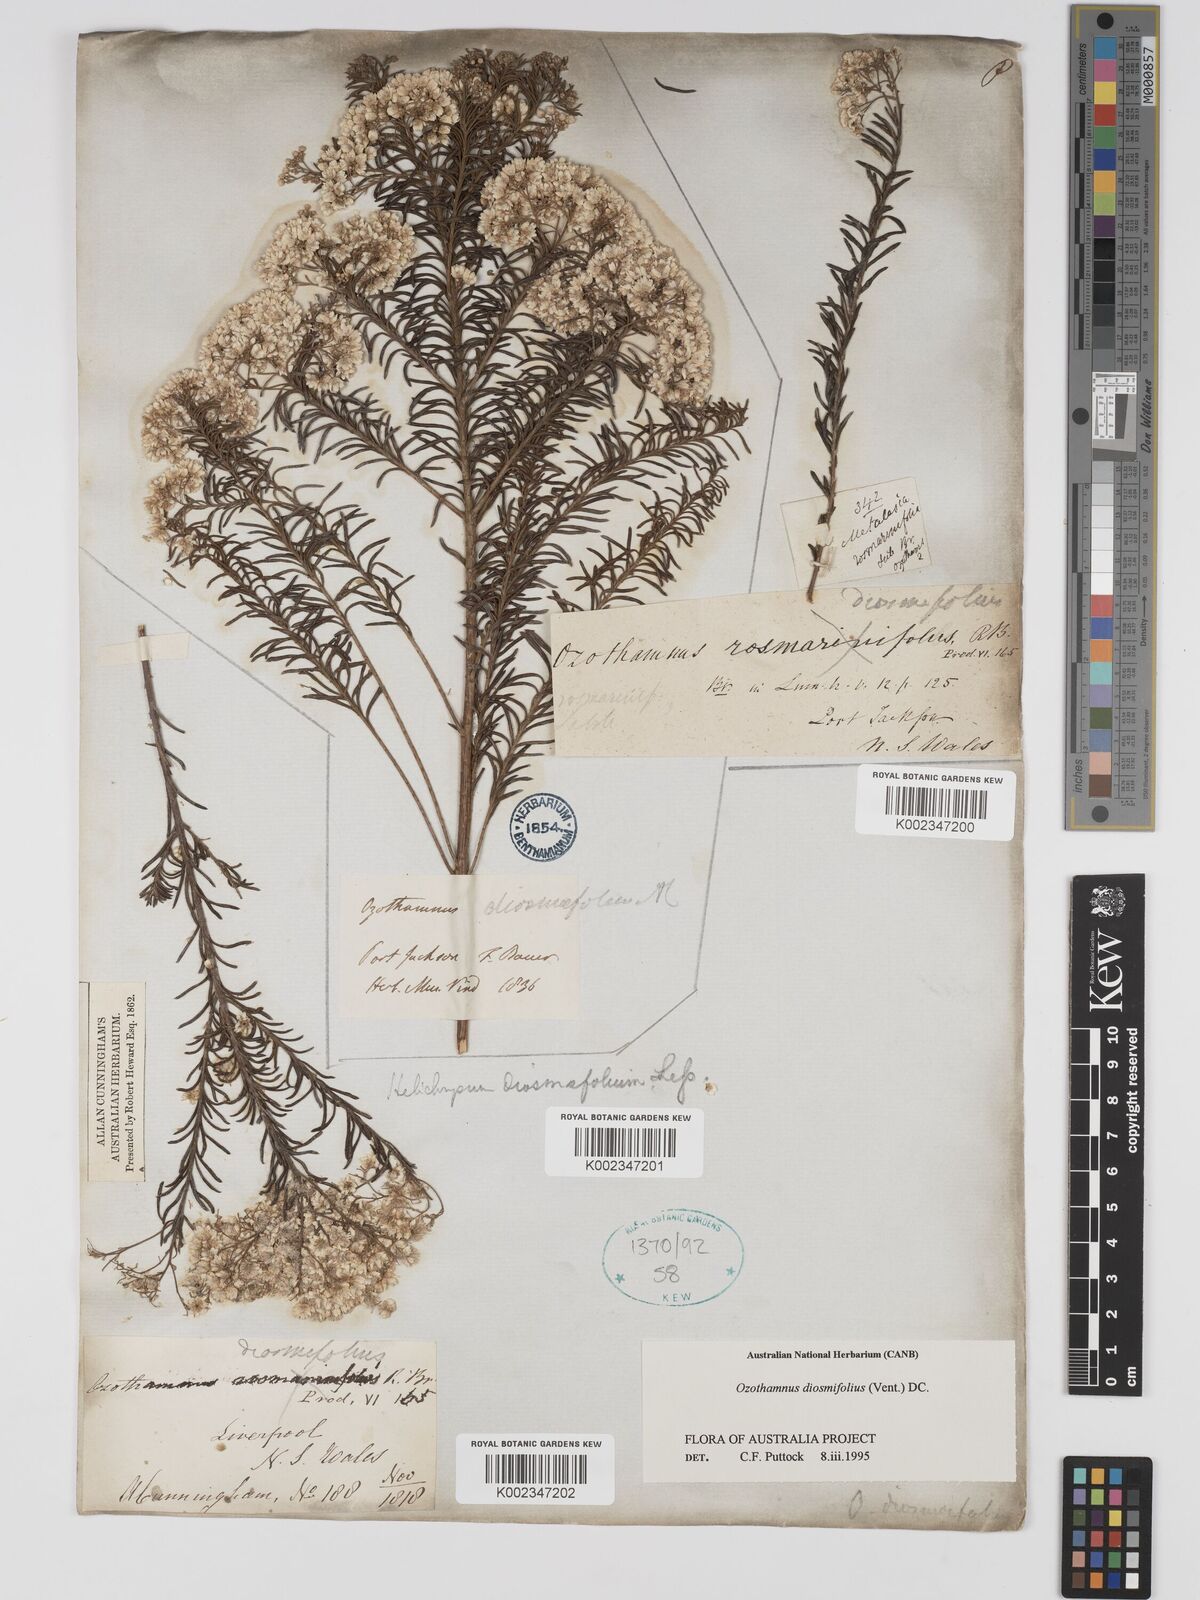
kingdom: Plantae
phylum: Tracheophyta
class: Magnoliopsida
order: Asterales
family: Asteraceae
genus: Ozothamnus
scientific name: Ozothamnus diosmifolius
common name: White-dogwood
